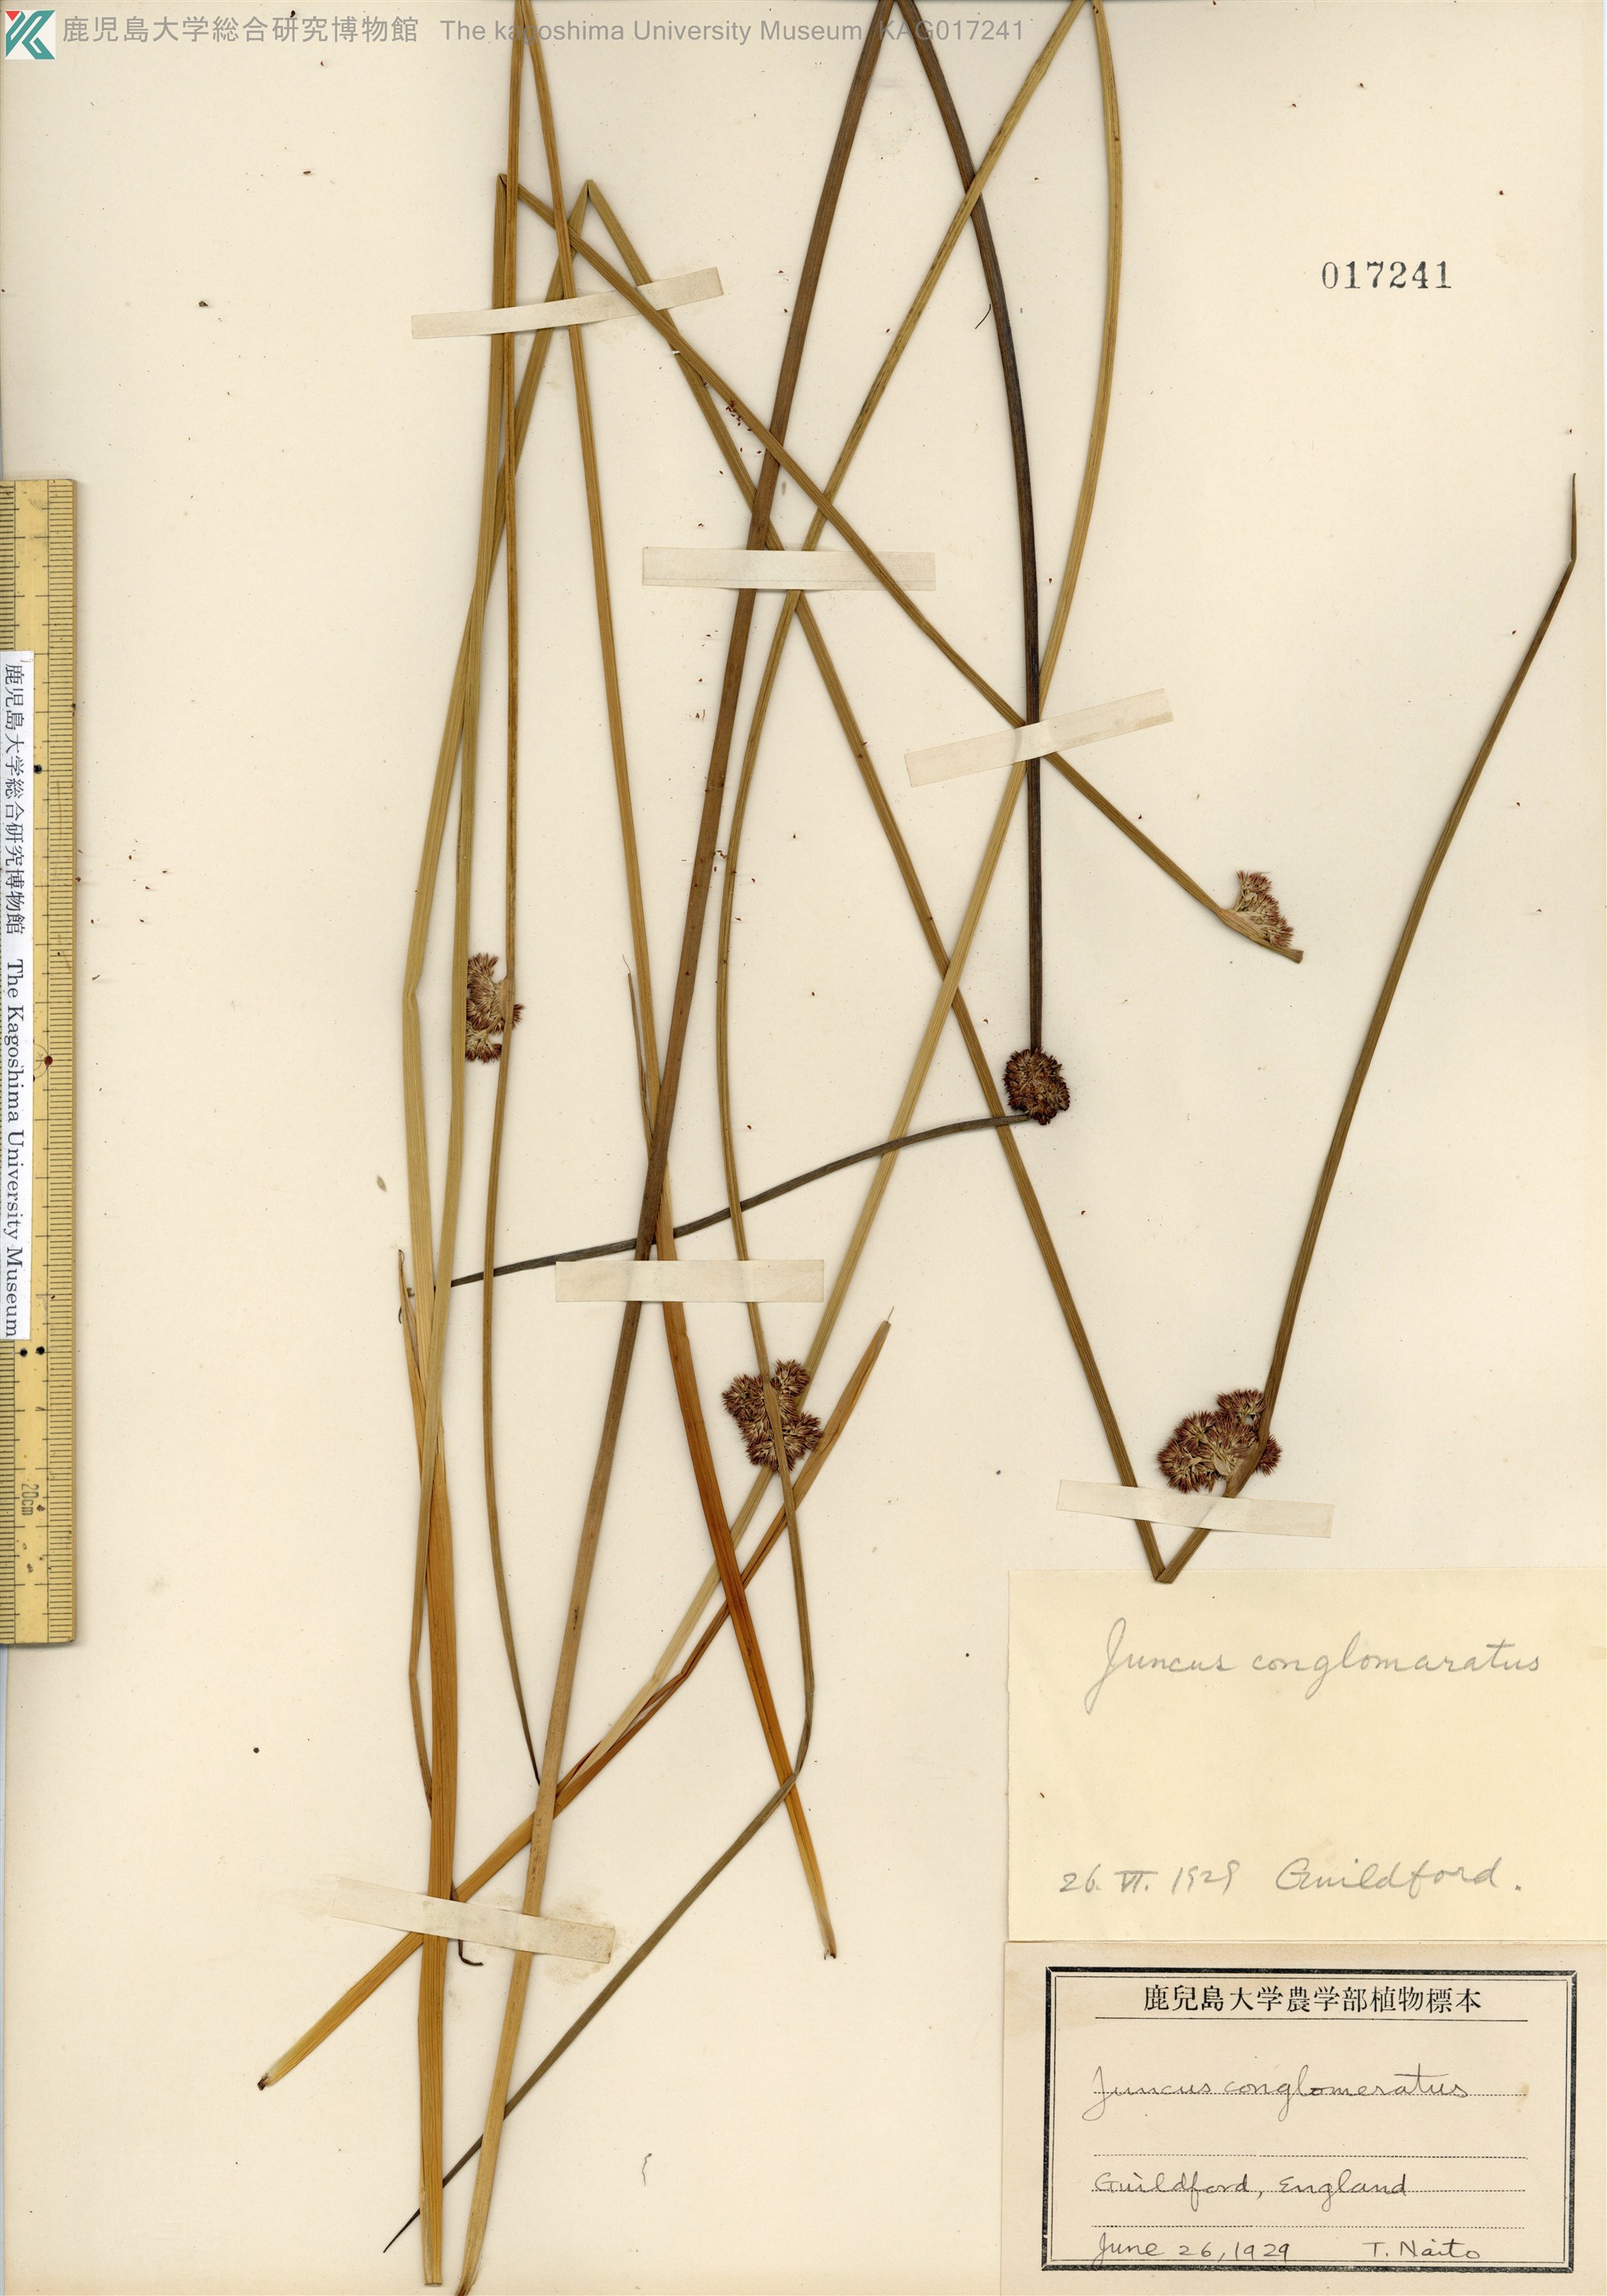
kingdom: Plantae
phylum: Tracheophyta
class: Liliopsida
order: Poales
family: Juncaceae
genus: Juncus
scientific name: Juncus conglomeratus
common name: Compact rush
